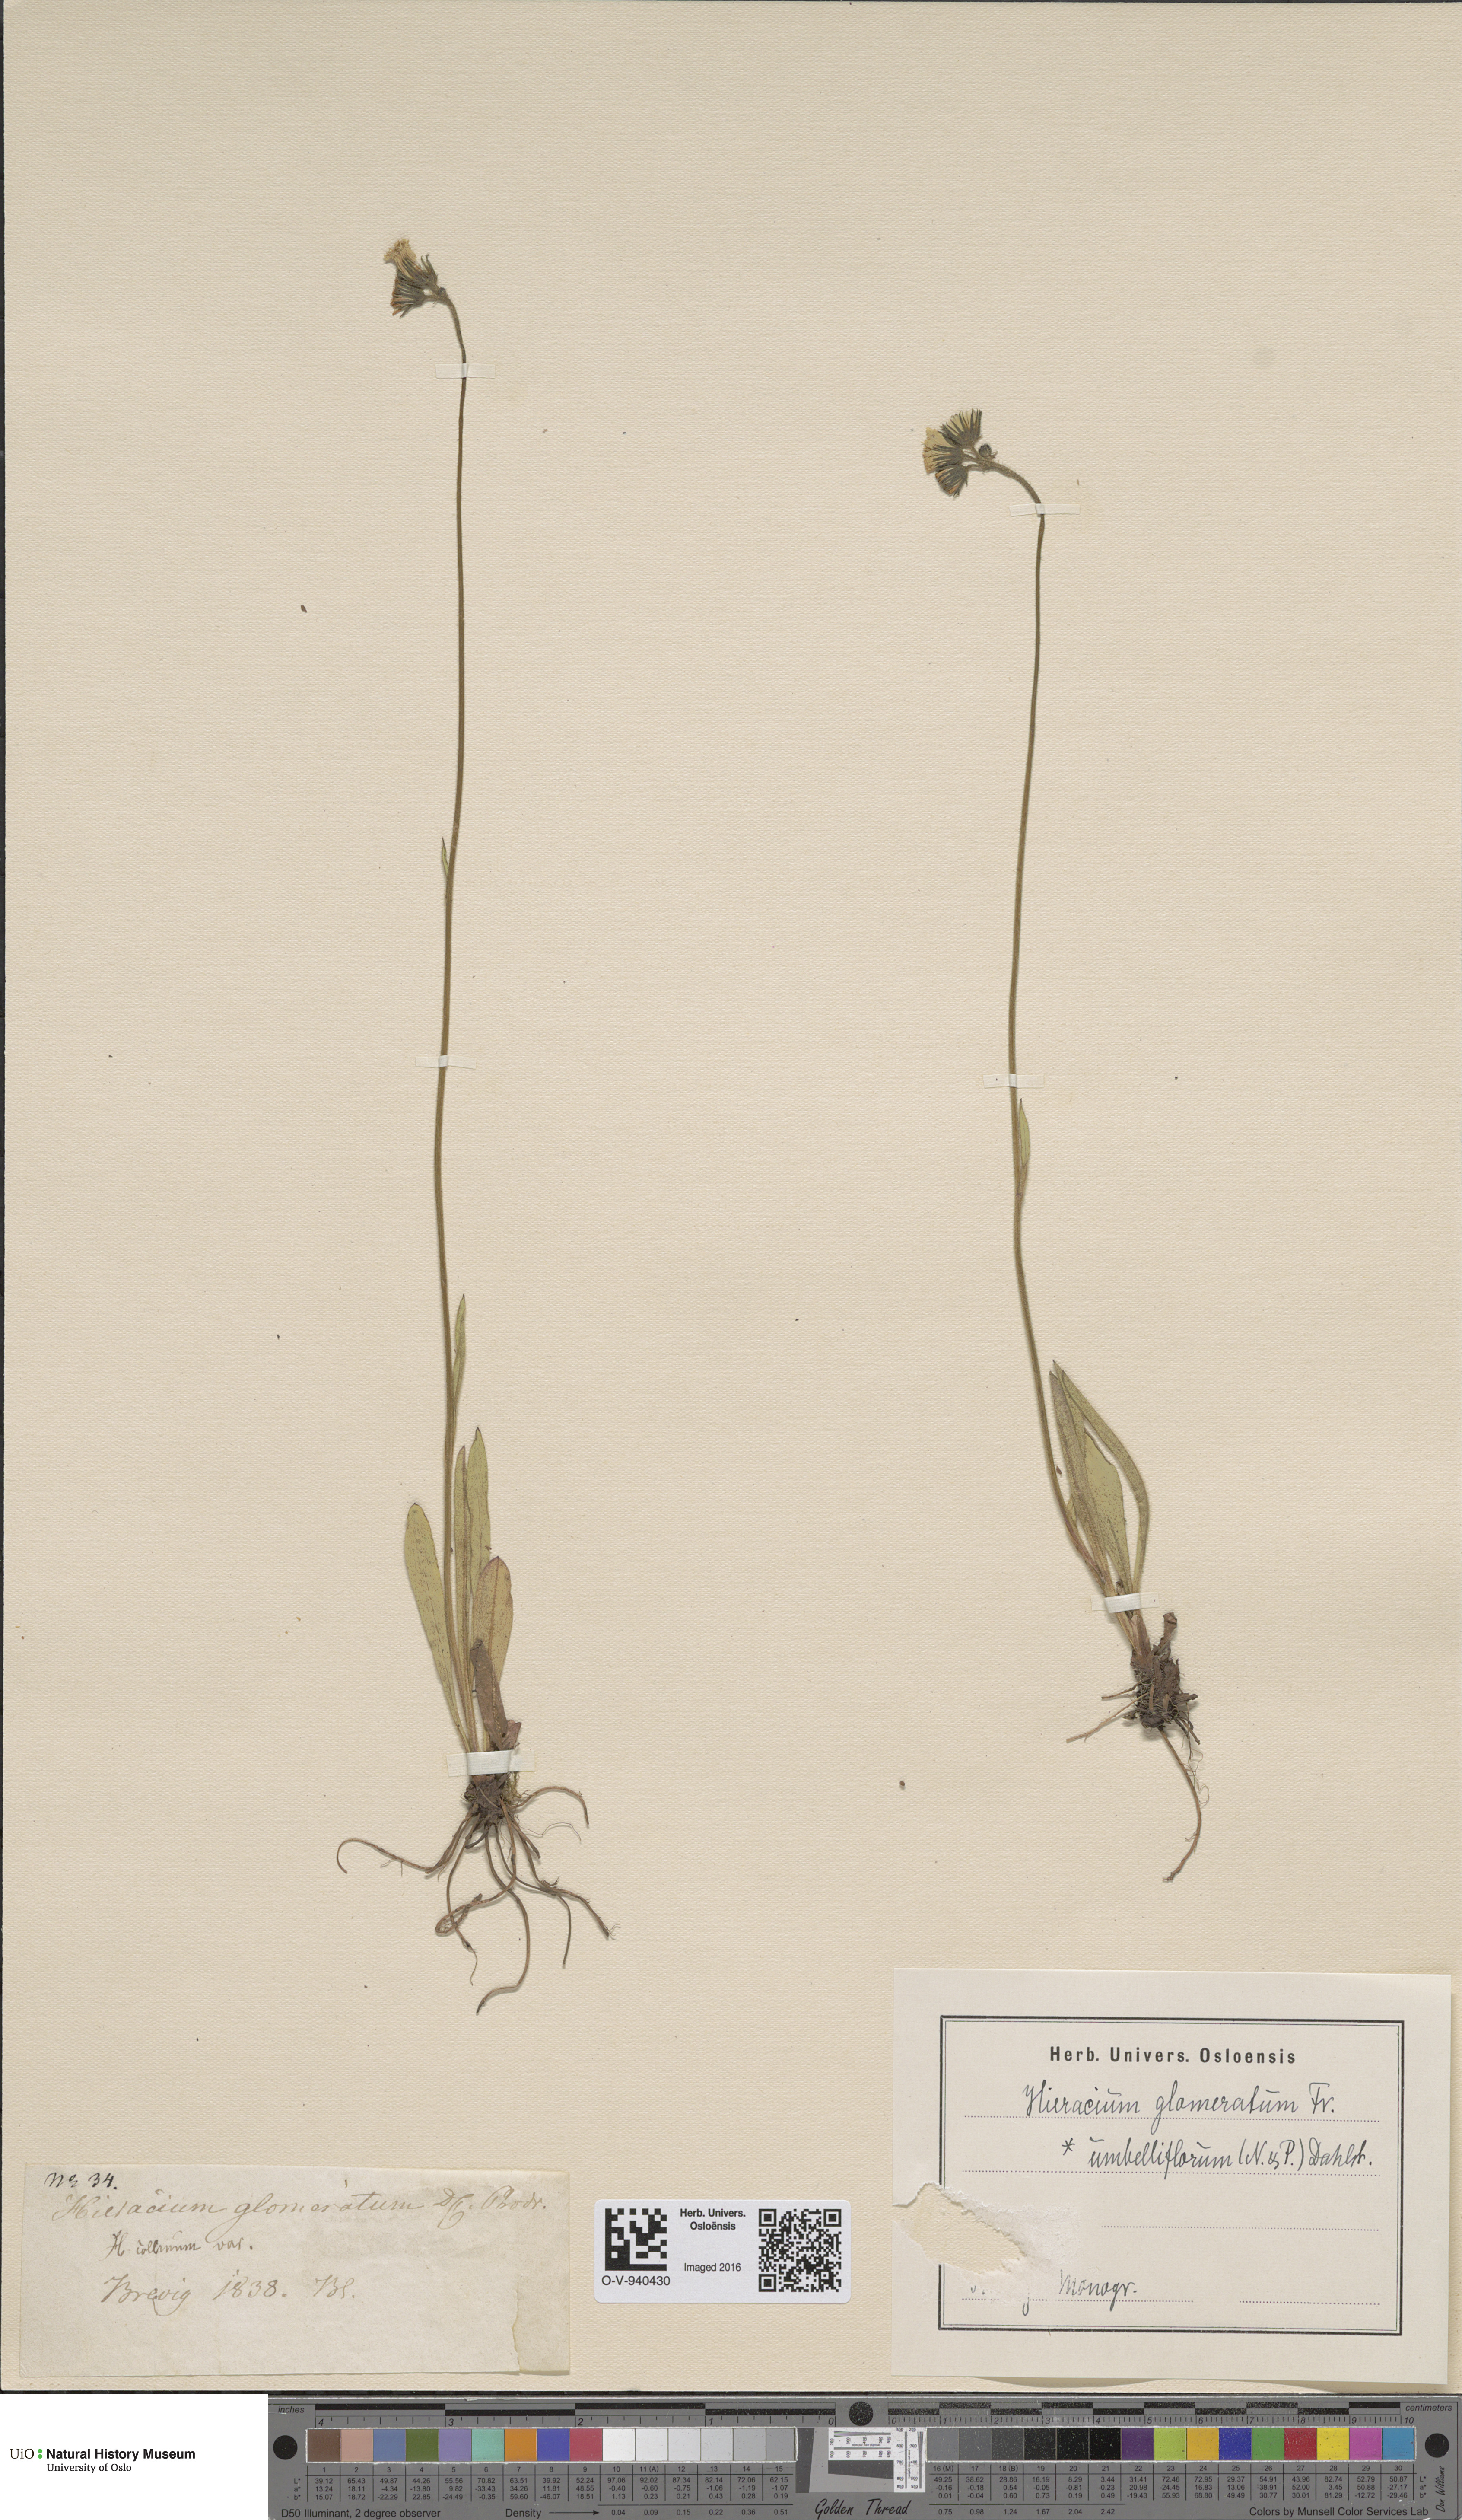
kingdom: Plantae
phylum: Tracheophyta
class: Magnoliopsida
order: Asterales
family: Asteraceae
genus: Pilosella
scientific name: Pilosella glomerata
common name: Queen devil hawkweed
